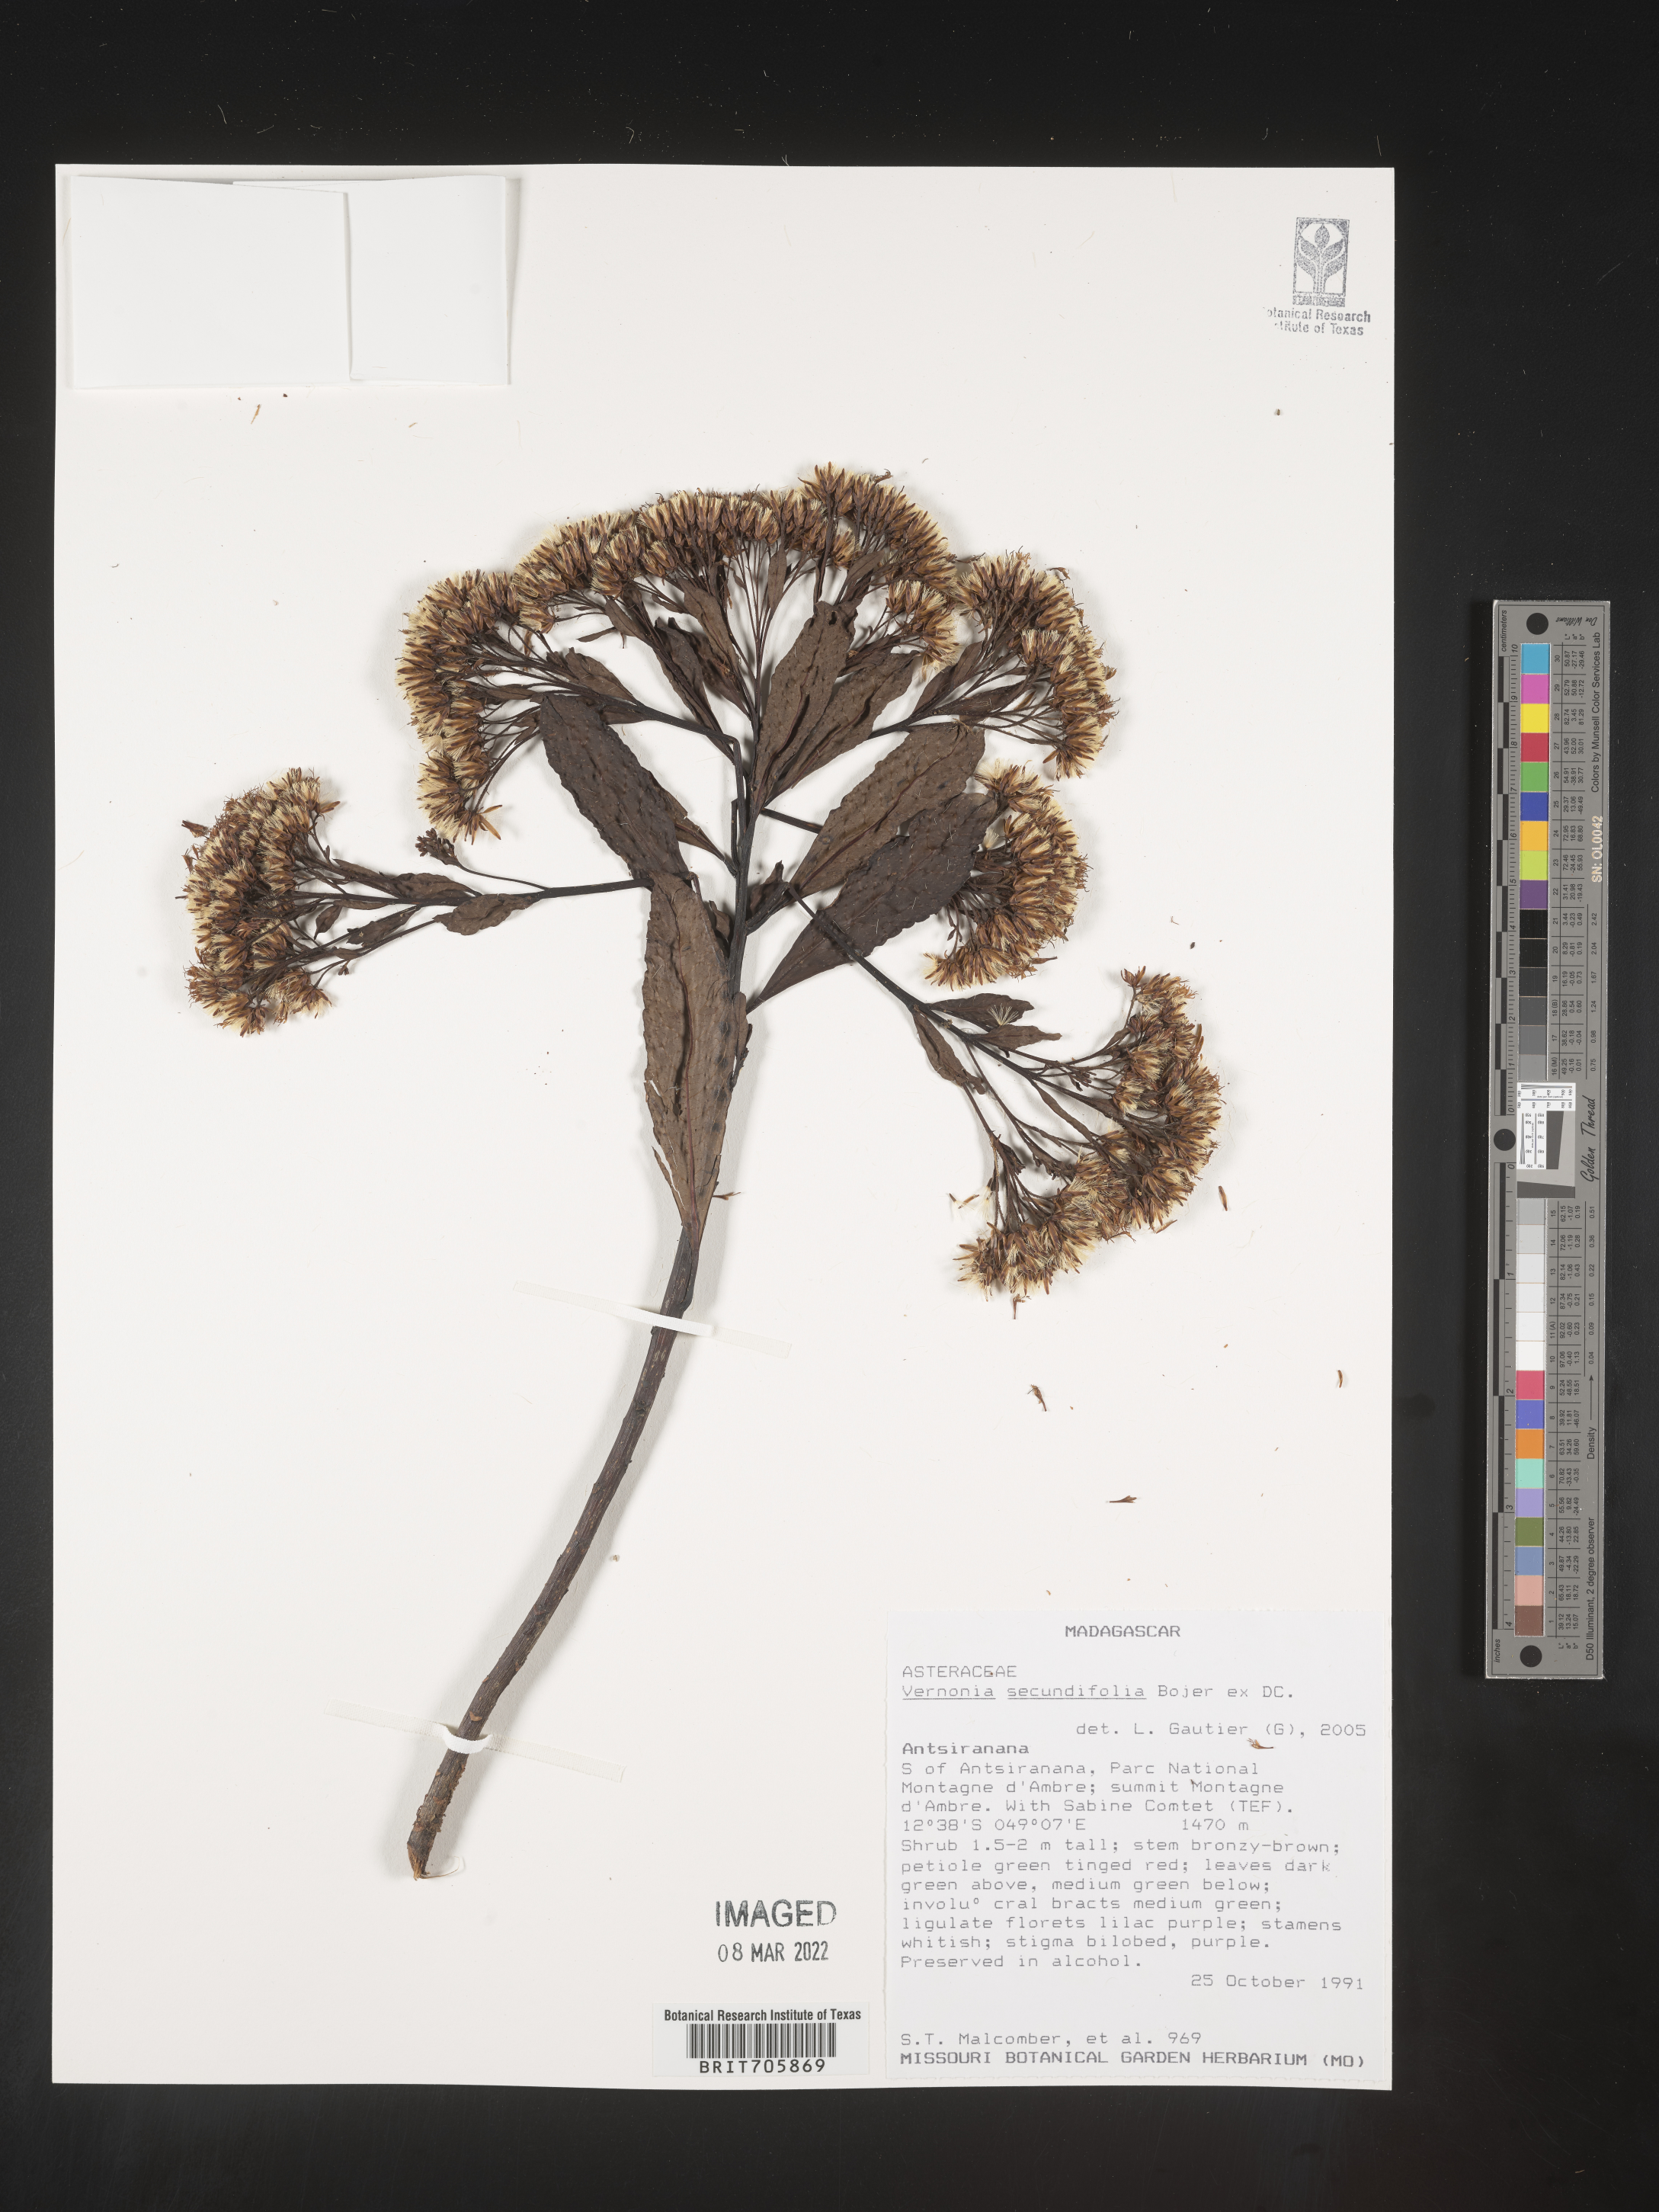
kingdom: Plantae
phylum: Tracheophyta
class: Magnoliopsida
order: Asterales
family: Asteraceae
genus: Vernonia
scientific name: Vernonia
